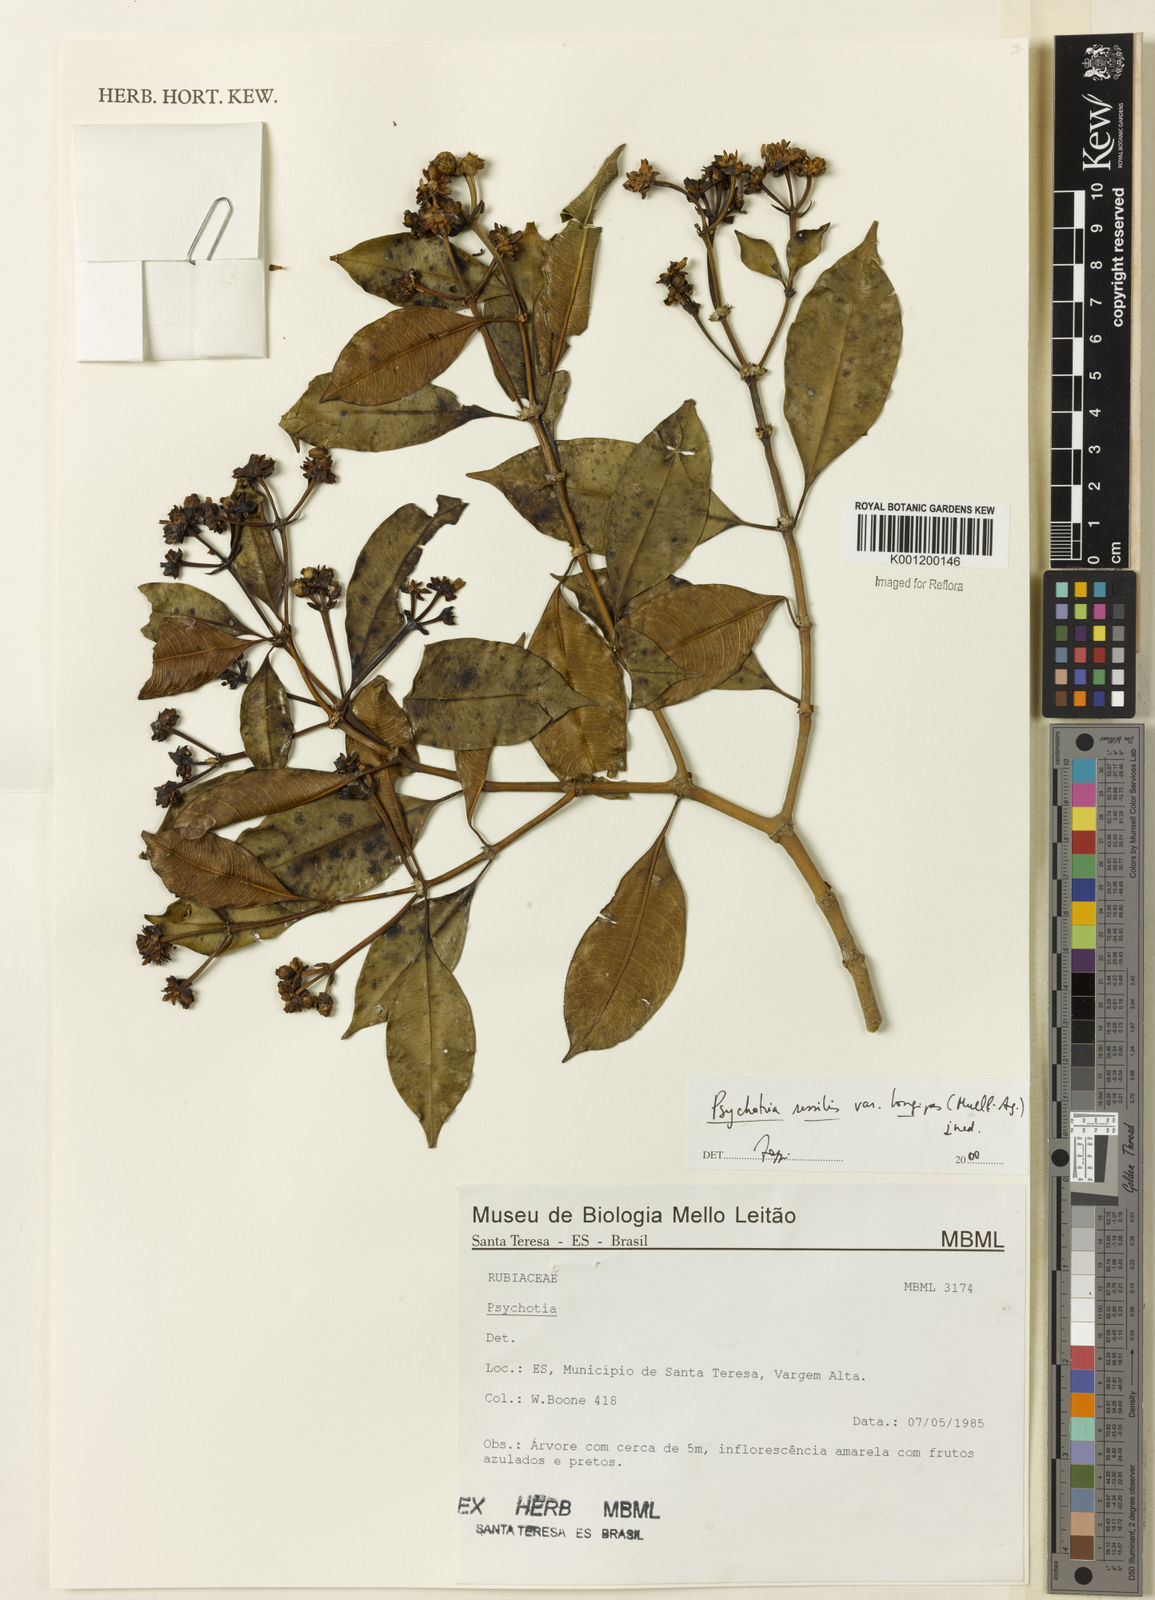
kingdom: Plantae
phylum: Tracheophyta
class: Magnoliopsida
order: Gentianales
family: Rubiaceae
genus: Rudgea
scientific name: Rudgea sessilis
